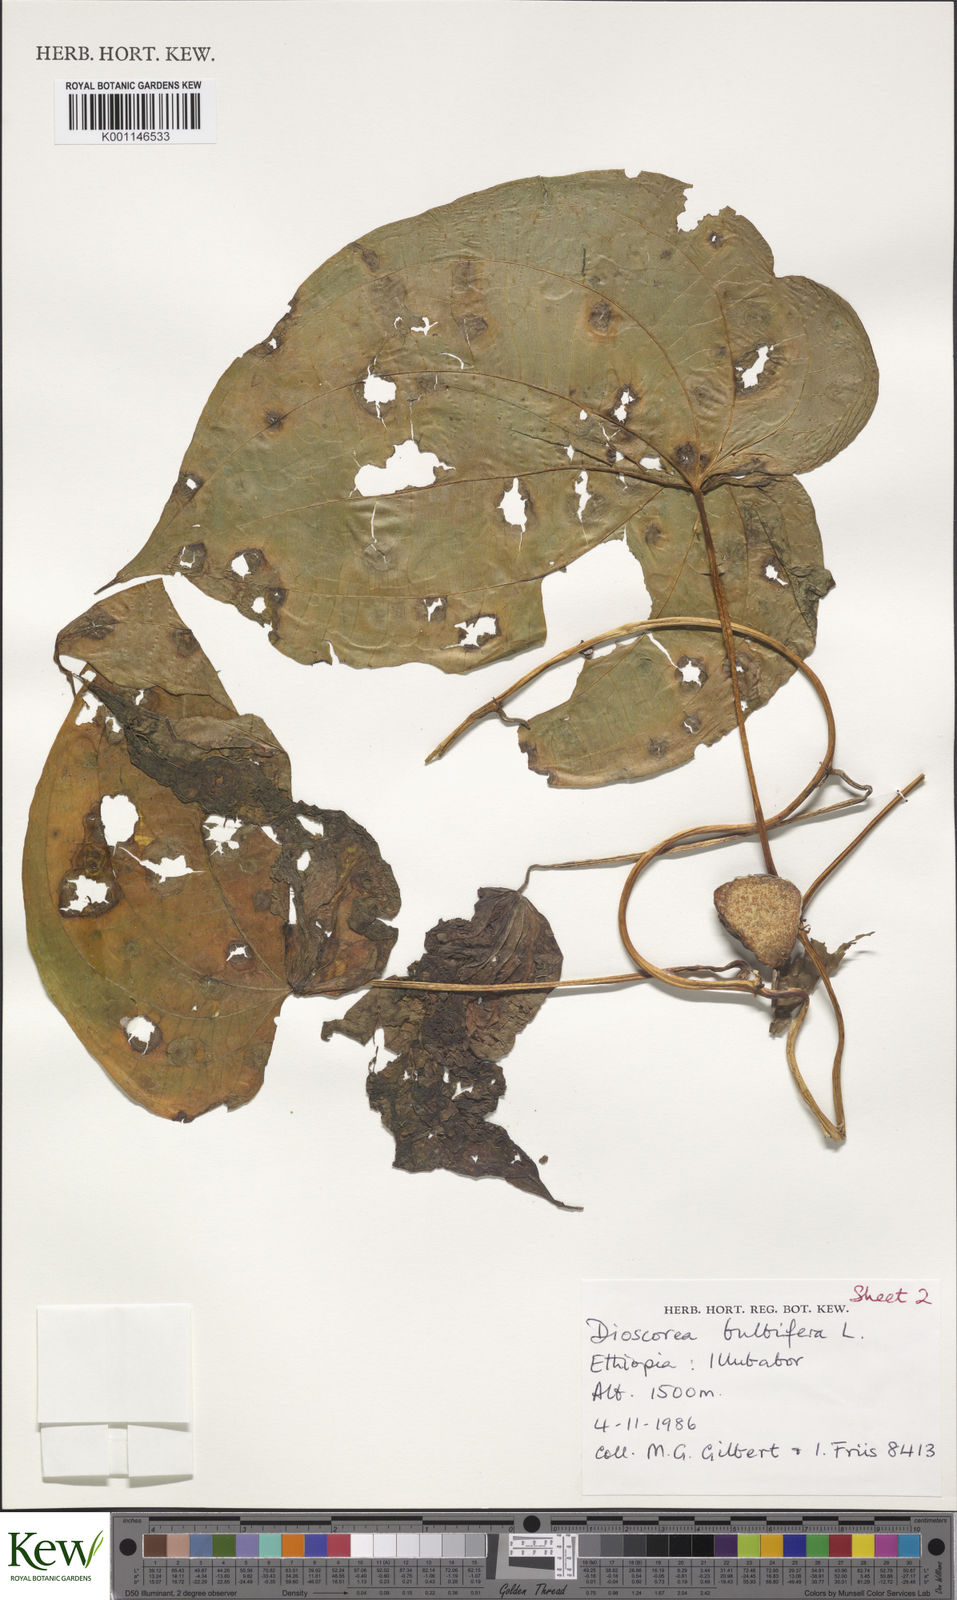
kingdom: Plantae
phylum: Tracheophyta
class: Liliopsida
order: Dioscoreales
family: Dioscoreaceae
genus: Dioscorea
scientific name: Dioscorea bulbifera
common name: Air yam
